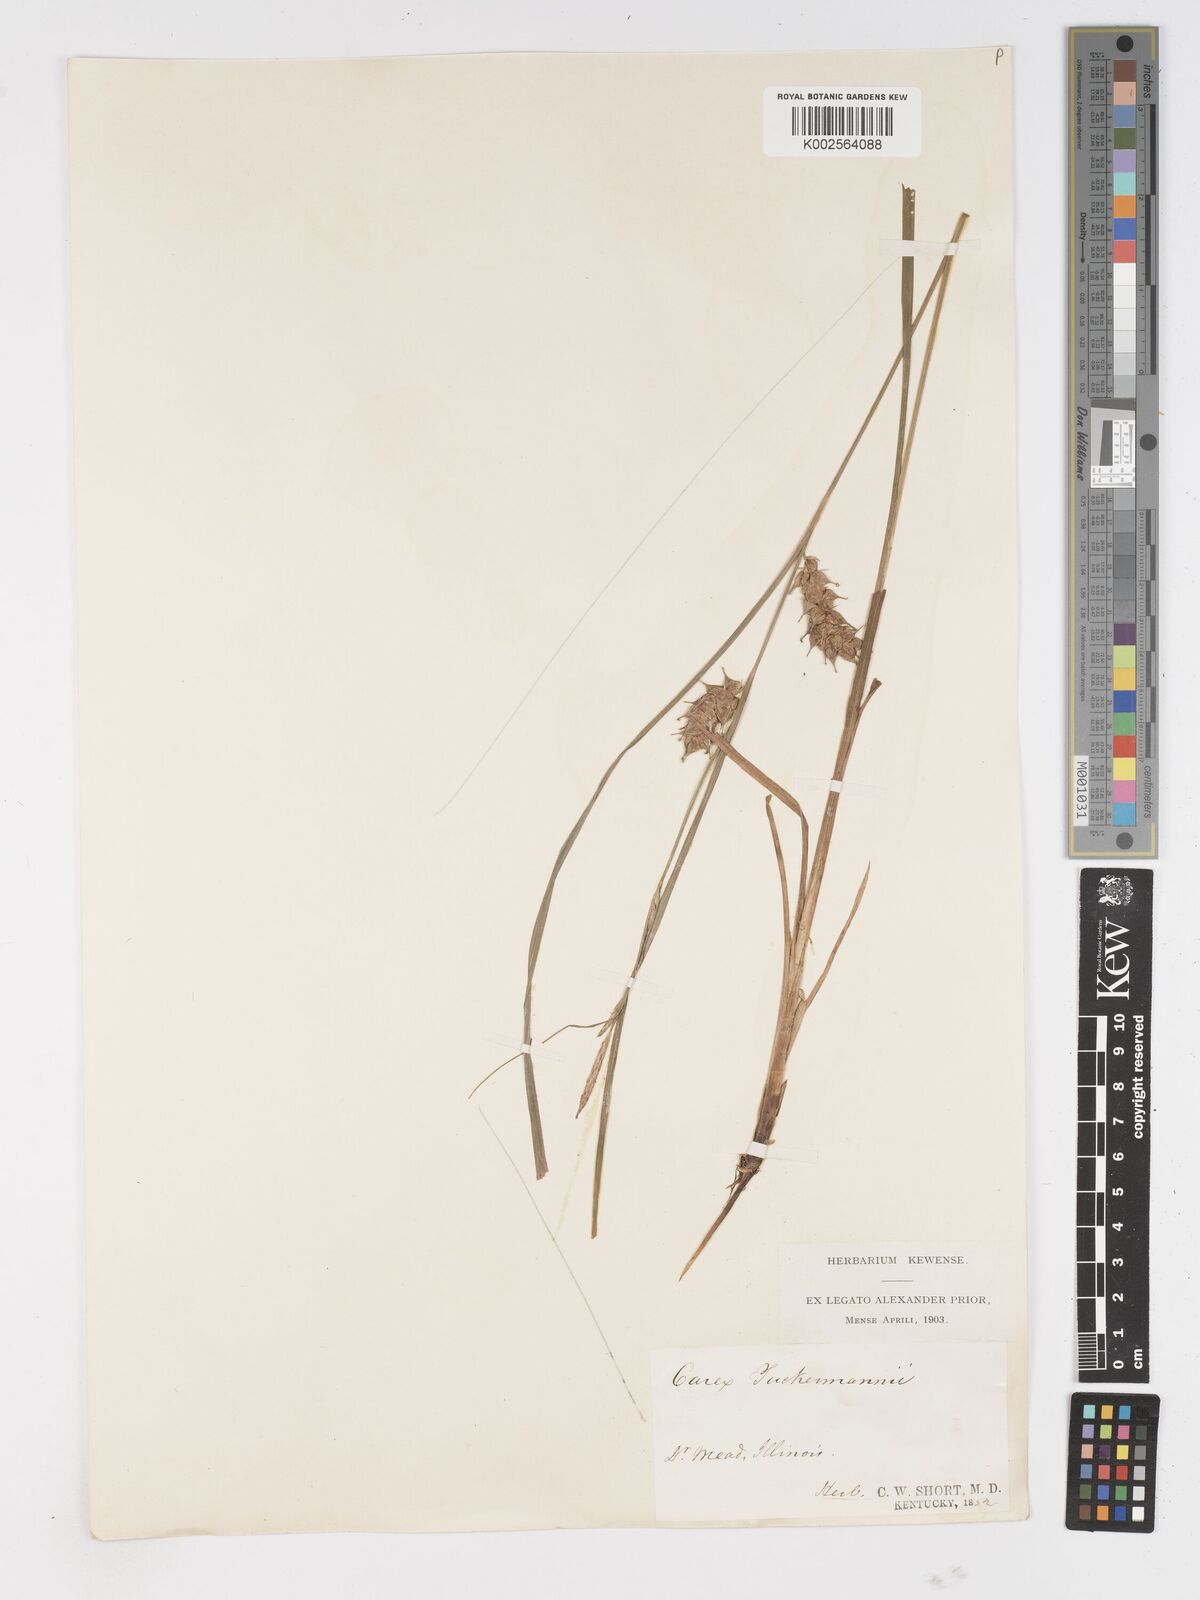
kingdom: Plantae
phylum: Tracheophyta
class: Liliopsida
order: Poales
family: Cyperaceae
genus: Carex
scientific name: Carex tuckermanii
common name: Tuckerman's sedge
